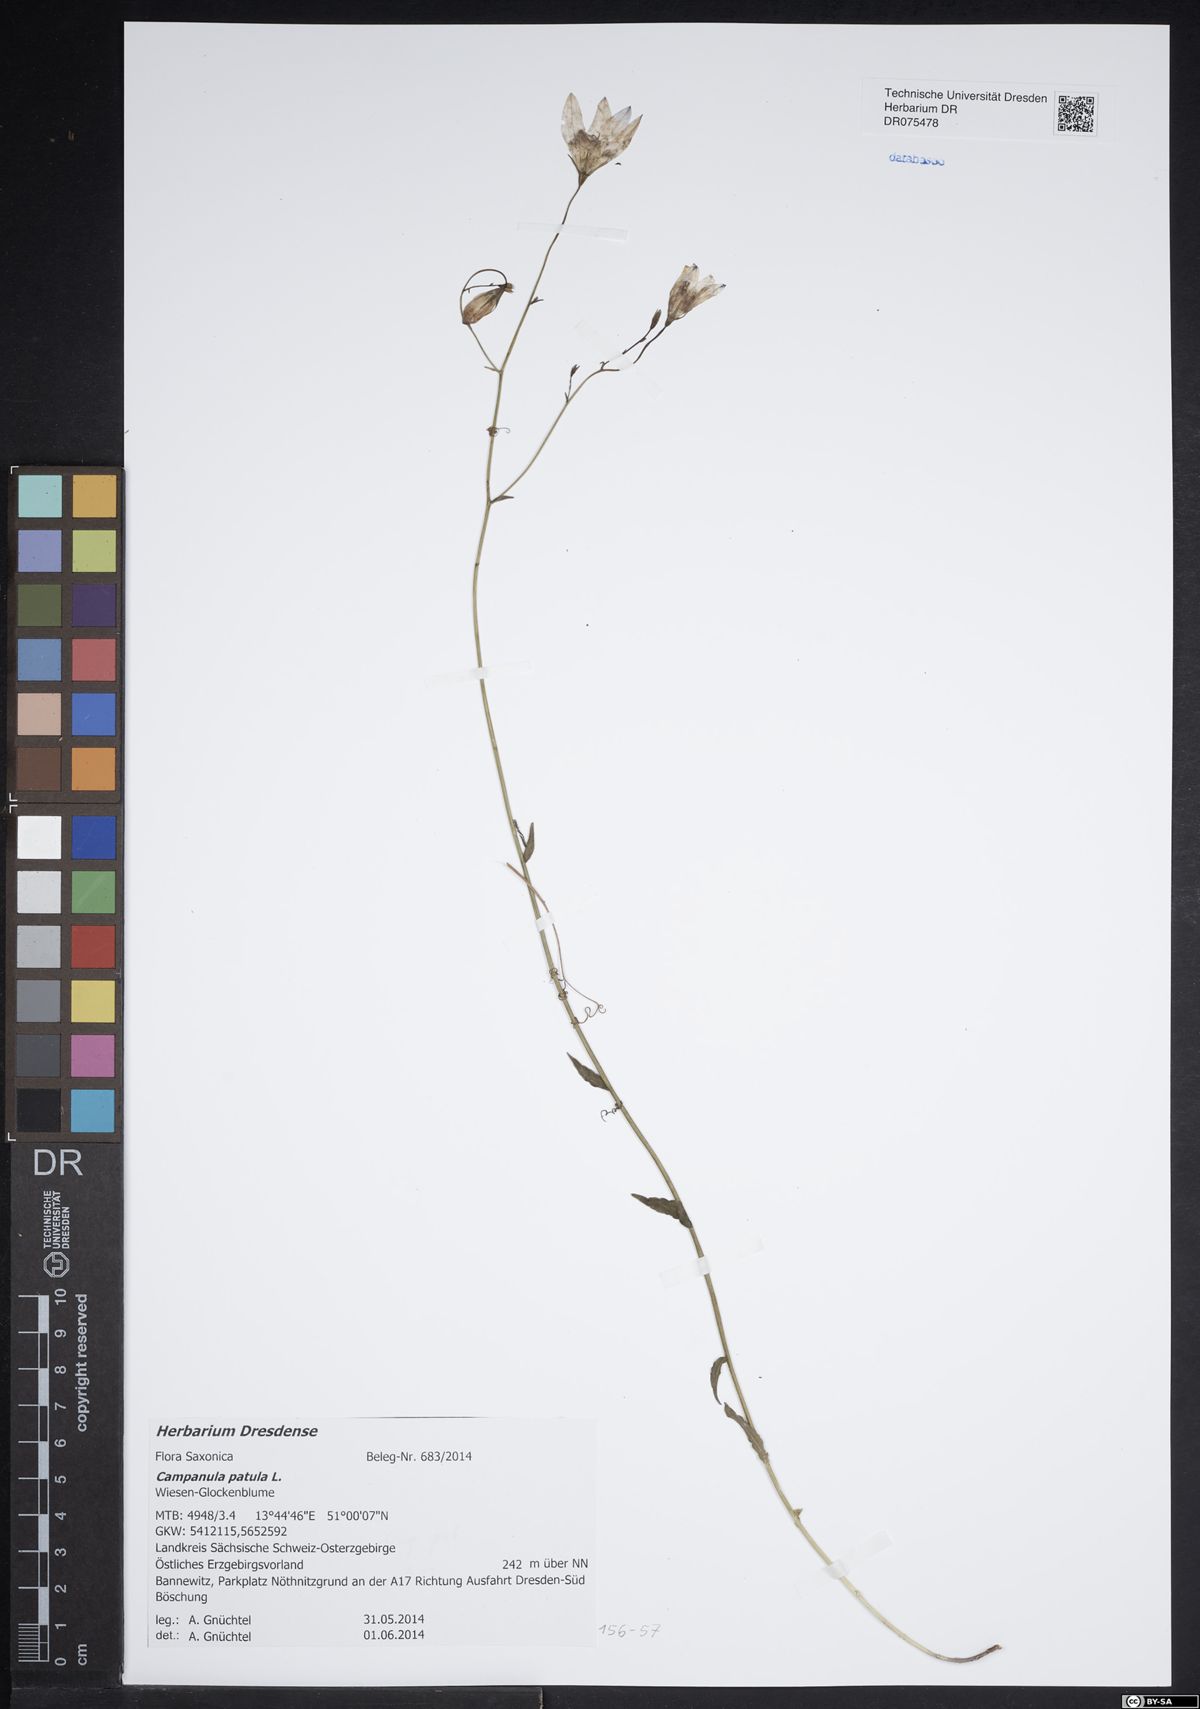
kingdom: Plantae
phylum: Tracheophyta
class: Magnoliopsida
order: Asterales
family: Campanulaceae
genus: Campanula
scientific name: Campanula patula
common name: Spreading bellflower
